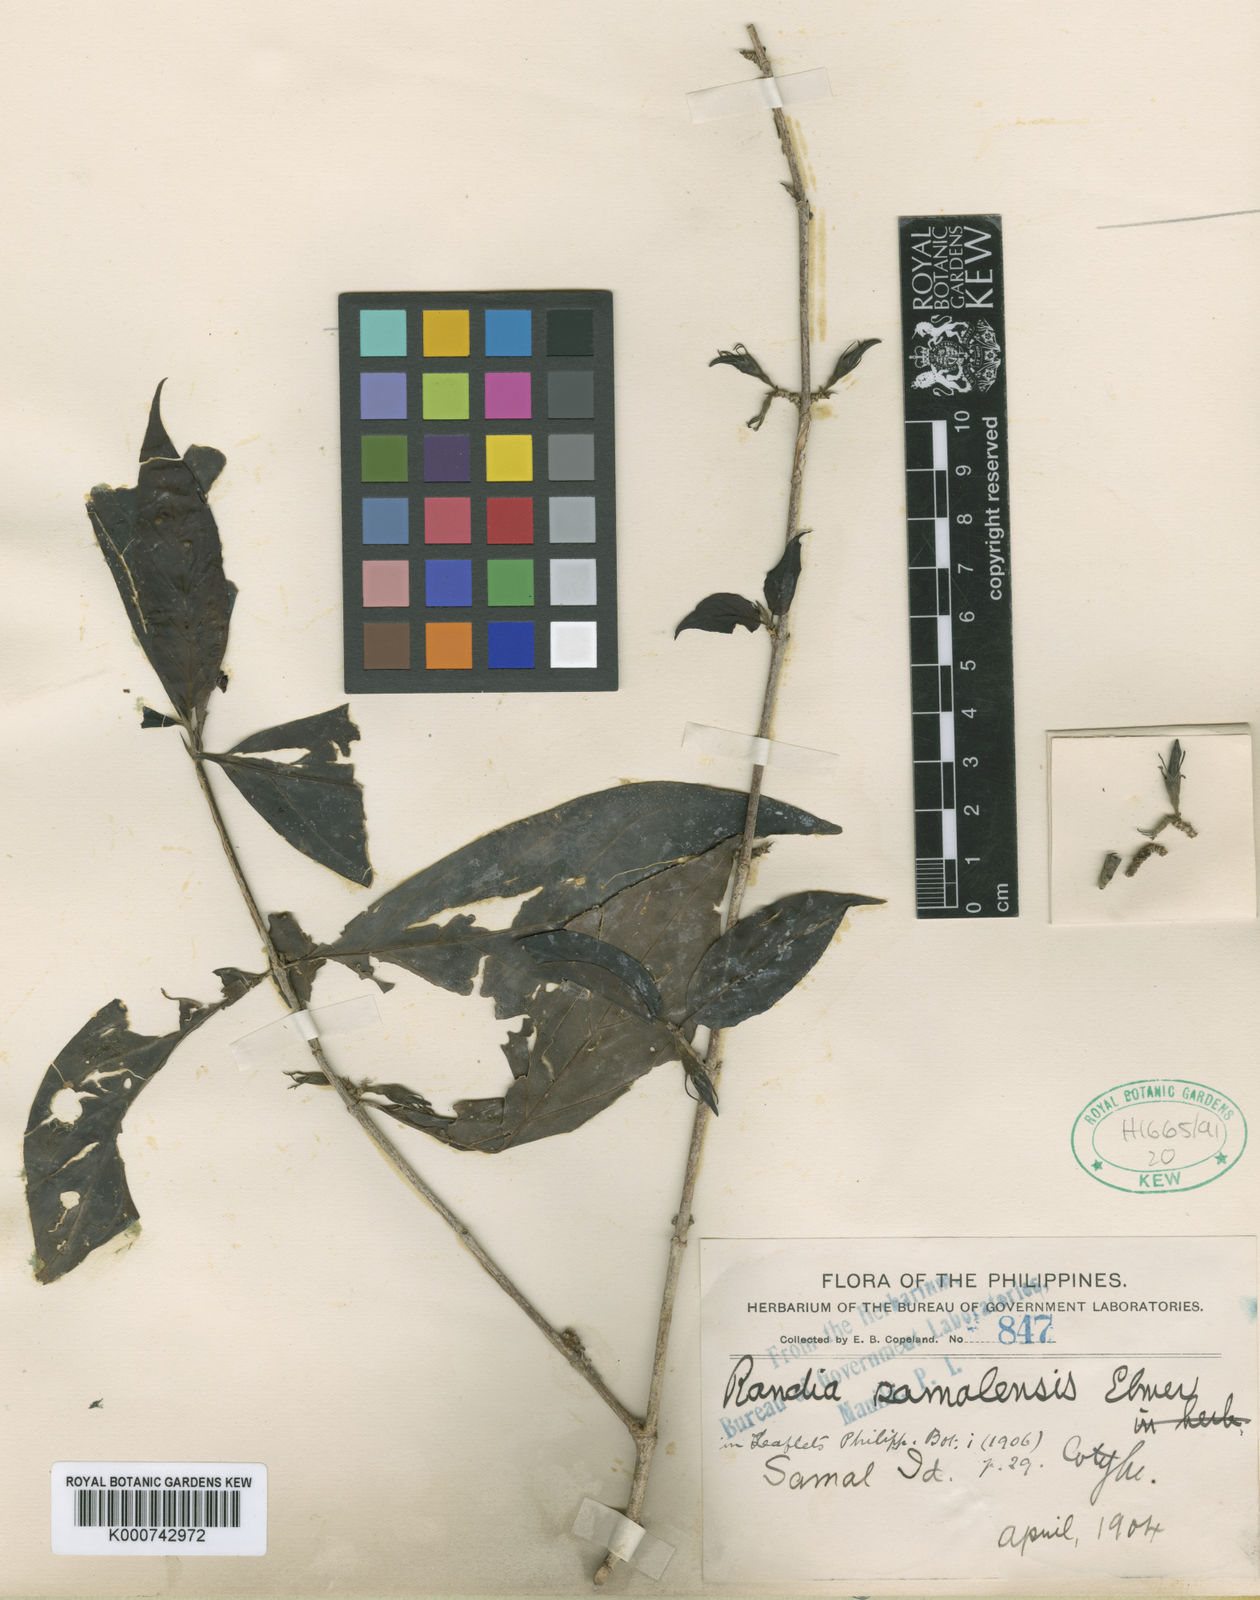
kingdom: Plantae
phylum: Tracheophyta
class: Magnoliopsida
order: Gentianales
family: Rubiaceae
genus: Randia
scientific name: Randia samalensis
